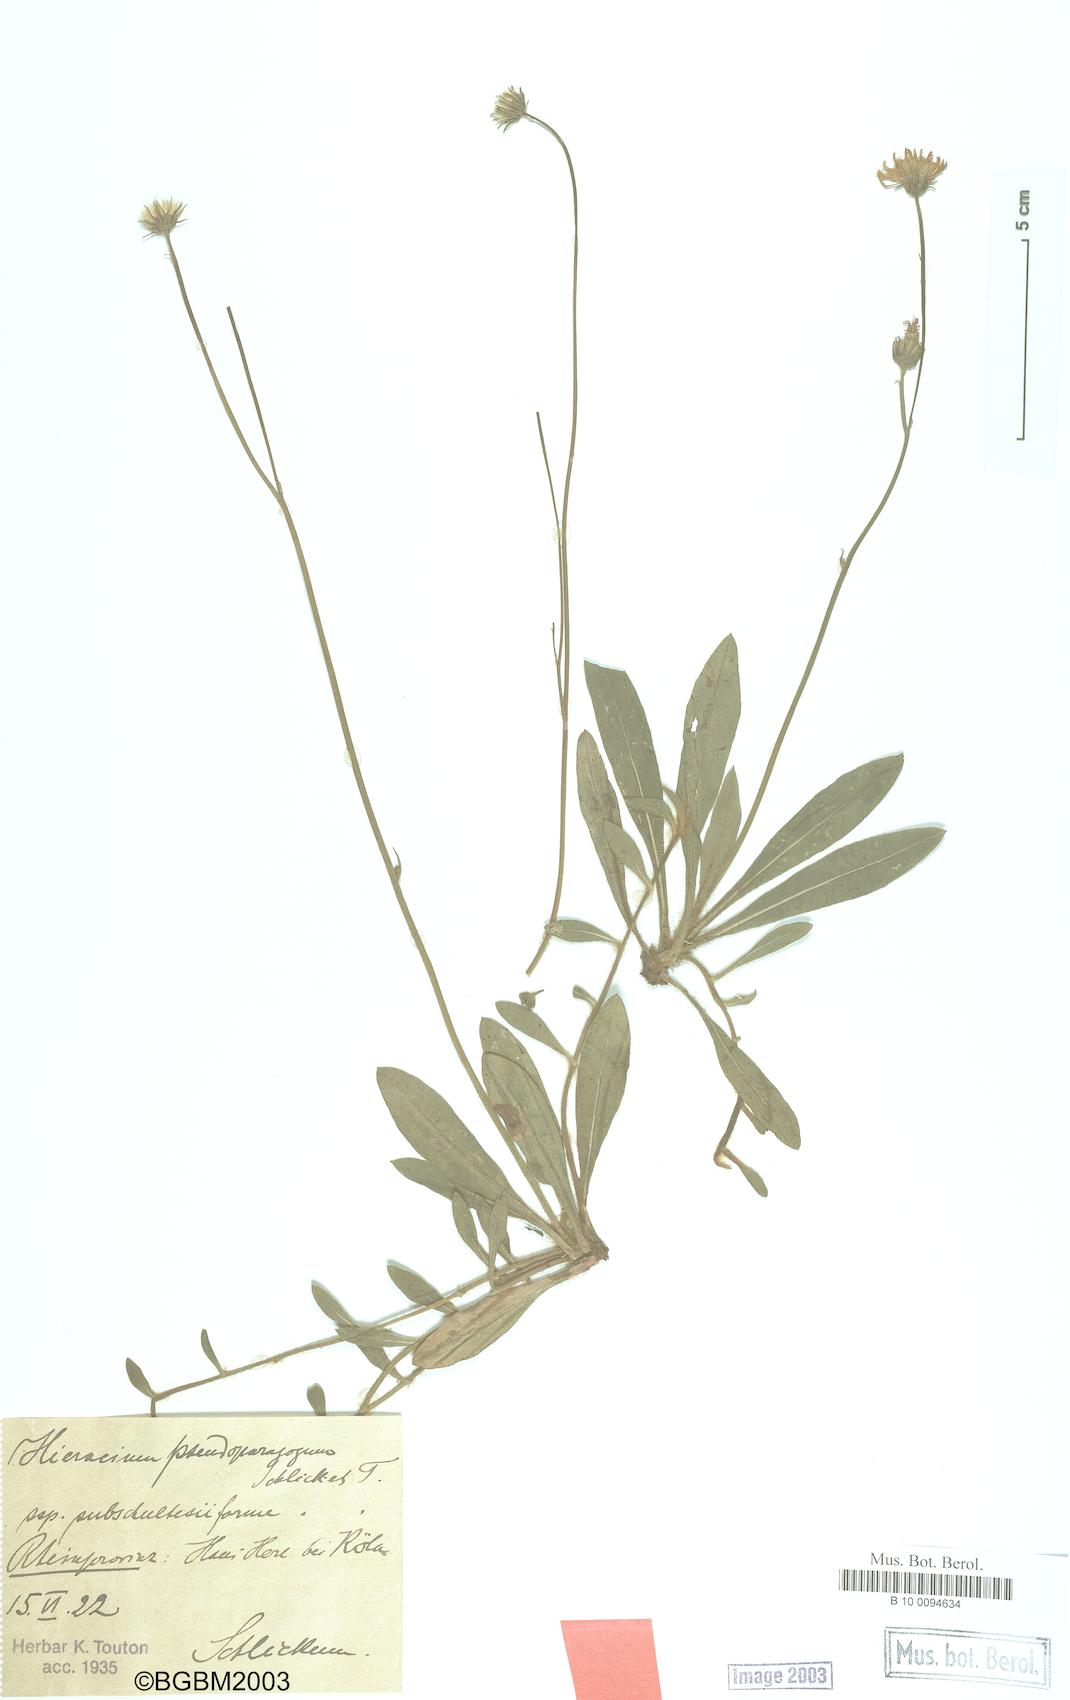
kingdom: Plantae
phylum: Tracheophyta
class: Magnoliopsida
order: Asterales
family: Asteraceae
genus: Pilosella
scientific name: Pilosella pseudoparagoga
